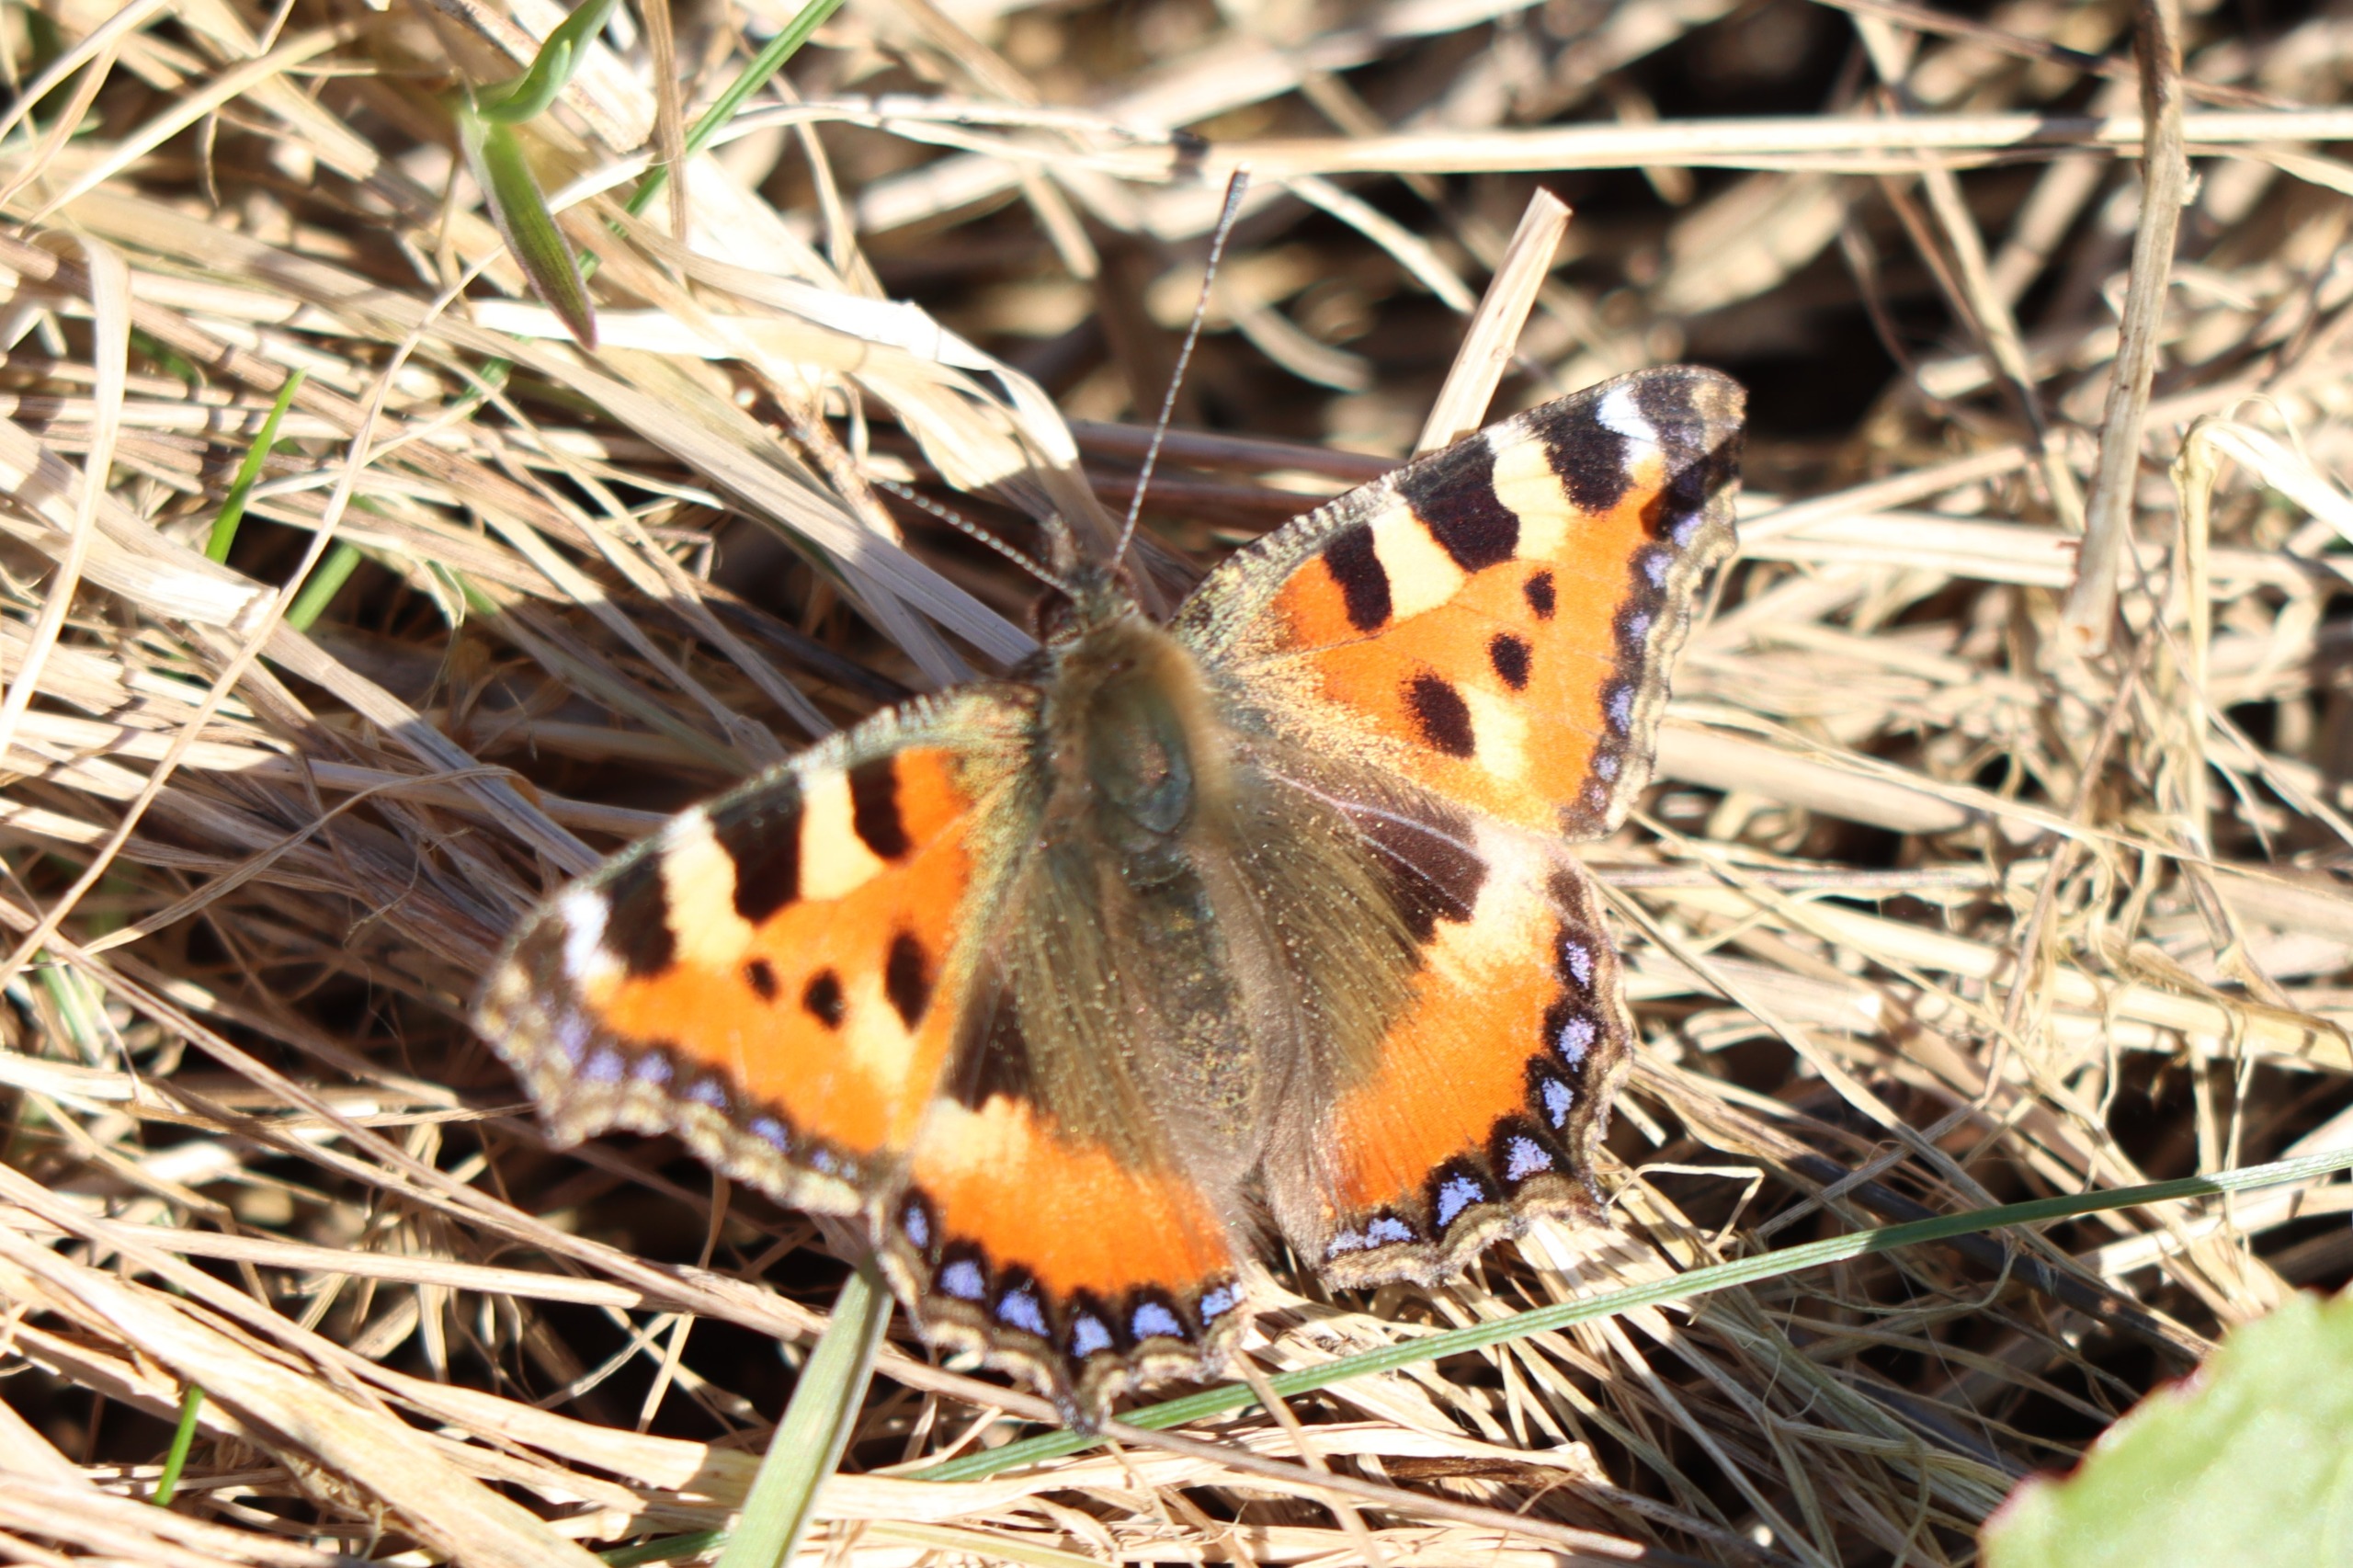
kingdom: Animalia
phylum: Arthropoda
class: Insecta
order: Lepidoptera
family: Nymphalidae
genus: Aglais
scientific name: Aglais urticae
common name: Nældens takvinge
